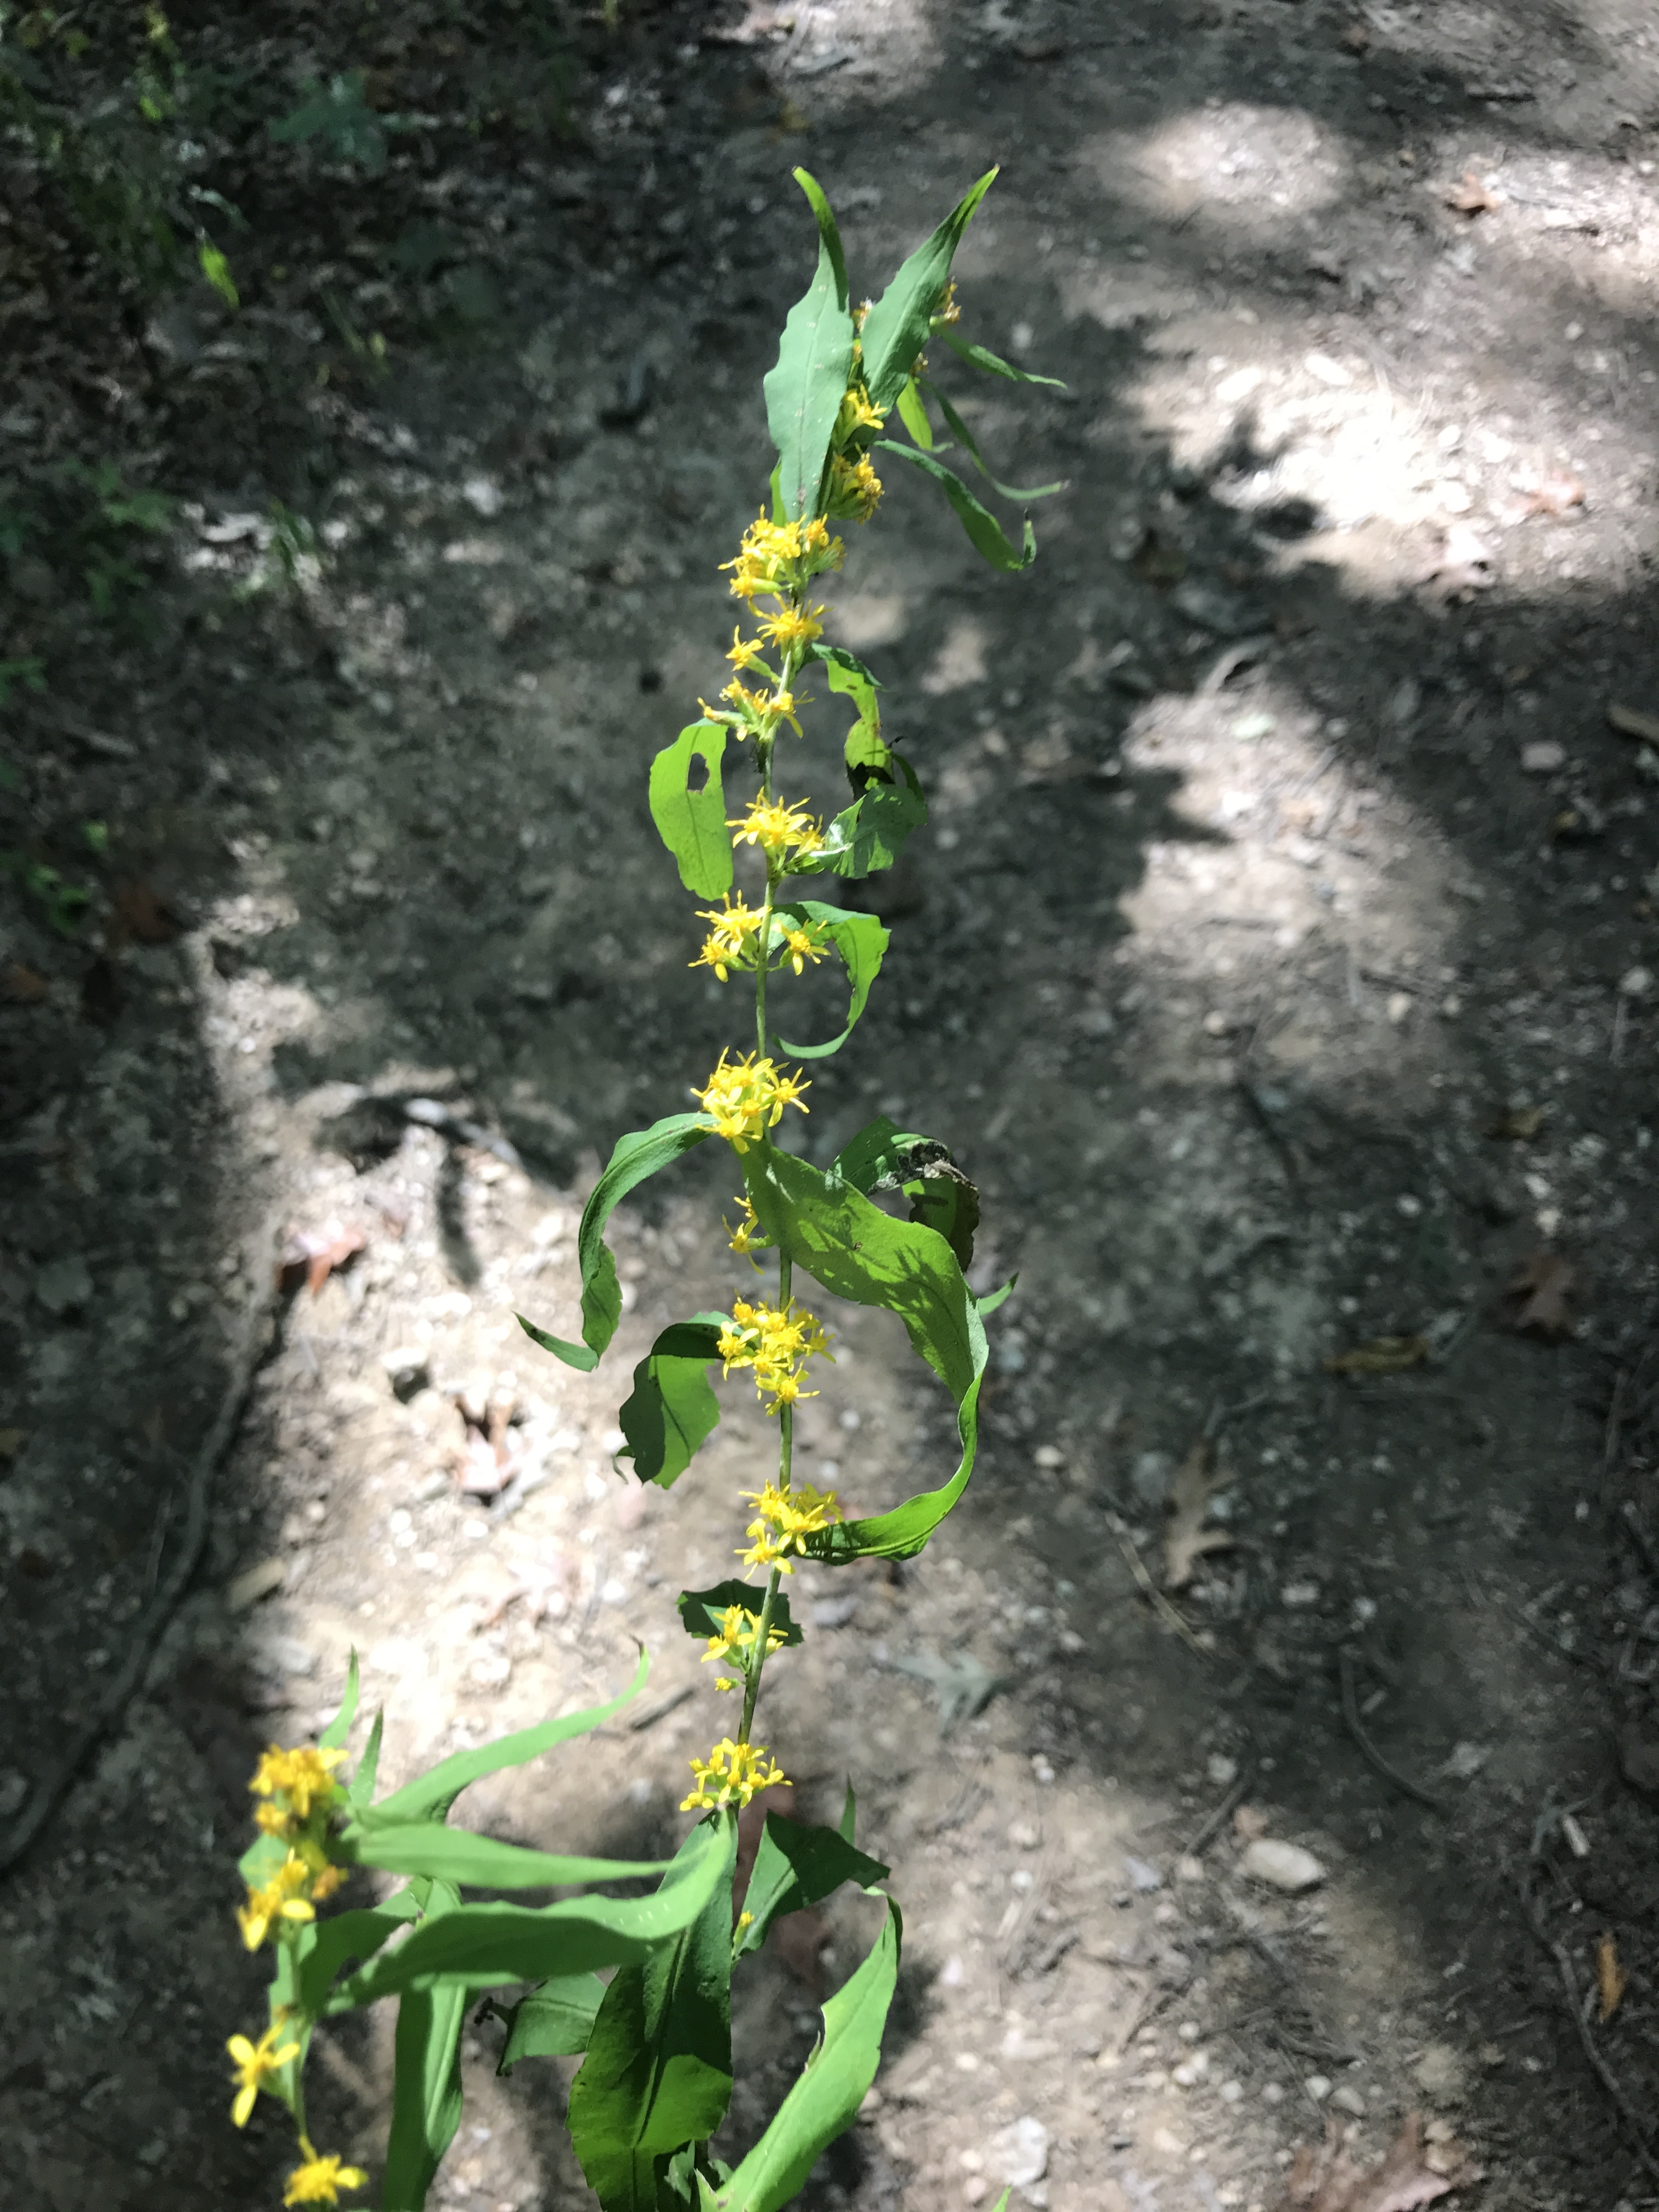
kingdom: Plantae
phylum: Tracheophyta
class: Magnoliopsida
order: Asterales
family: Asteraceae
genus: Solidago
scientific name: Solidago caesia
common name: Wreath Goldenrod
